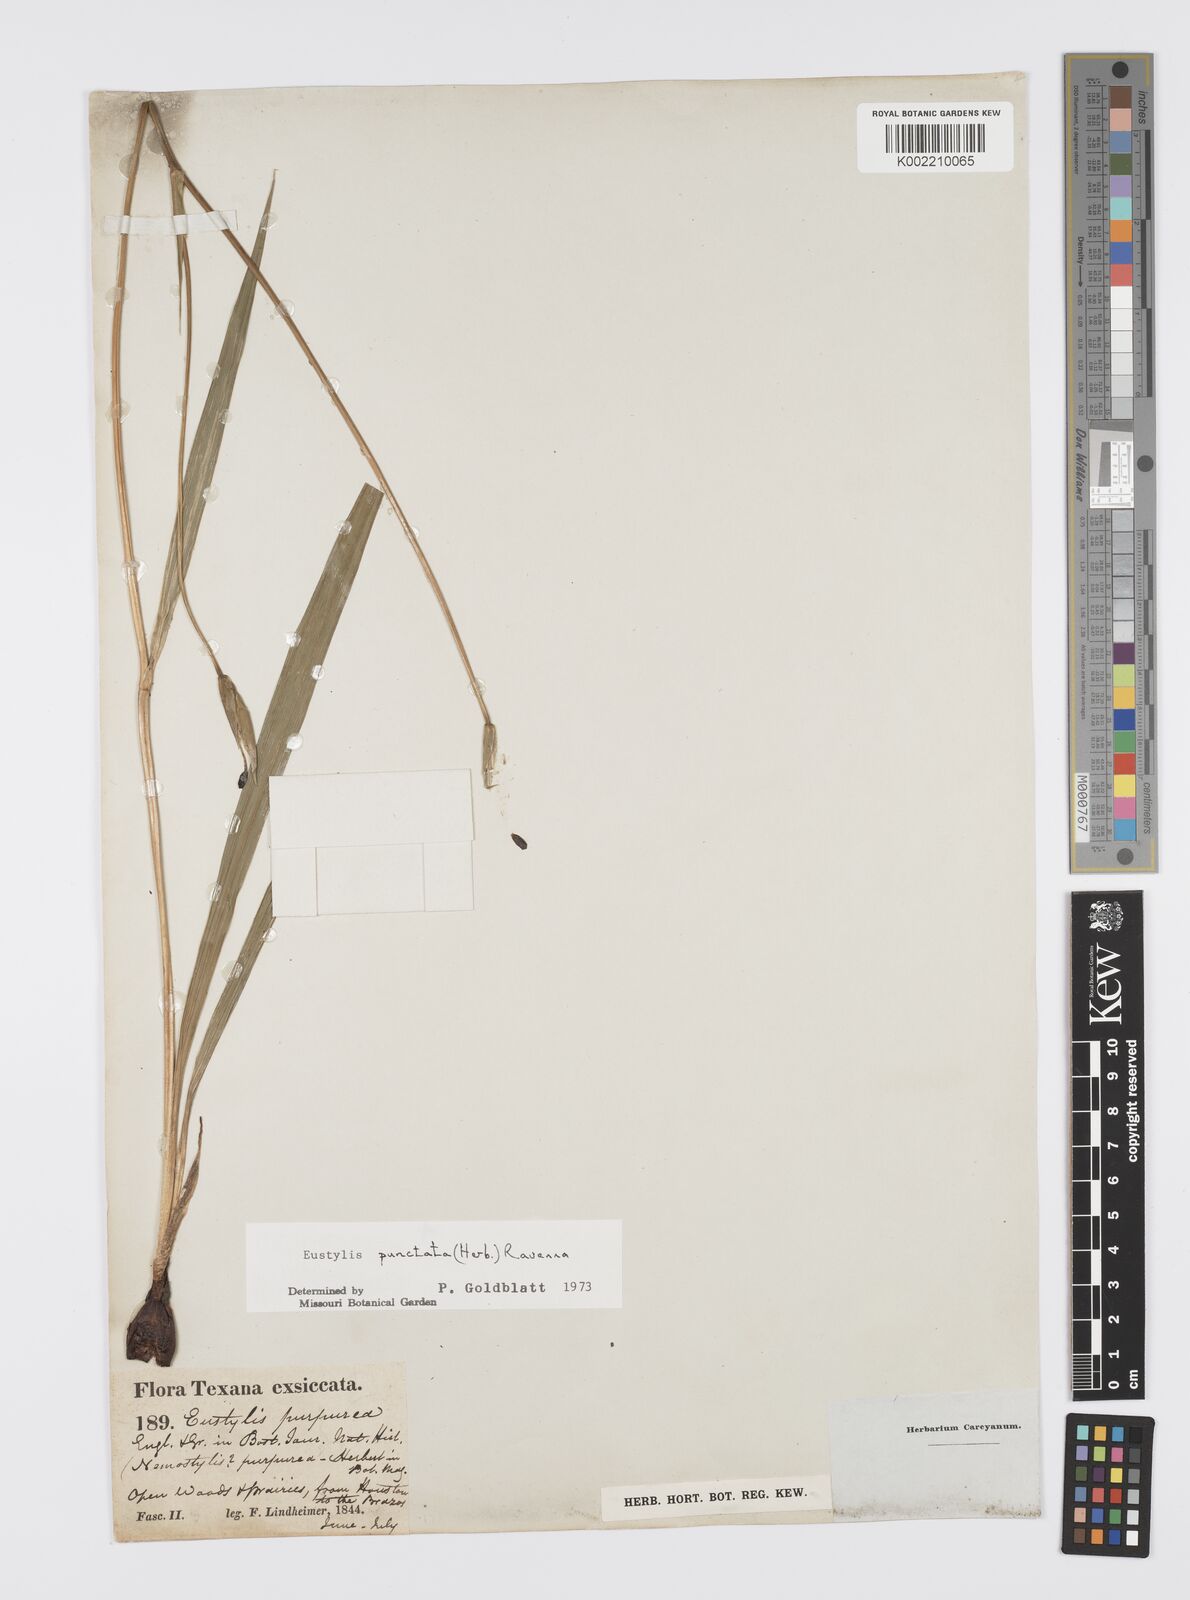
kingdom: Plantae
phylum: Tracheophyta
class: Liliopsida
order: Asparagales
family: Iridaceae
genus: Alophia
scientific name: Alophia drummondii
